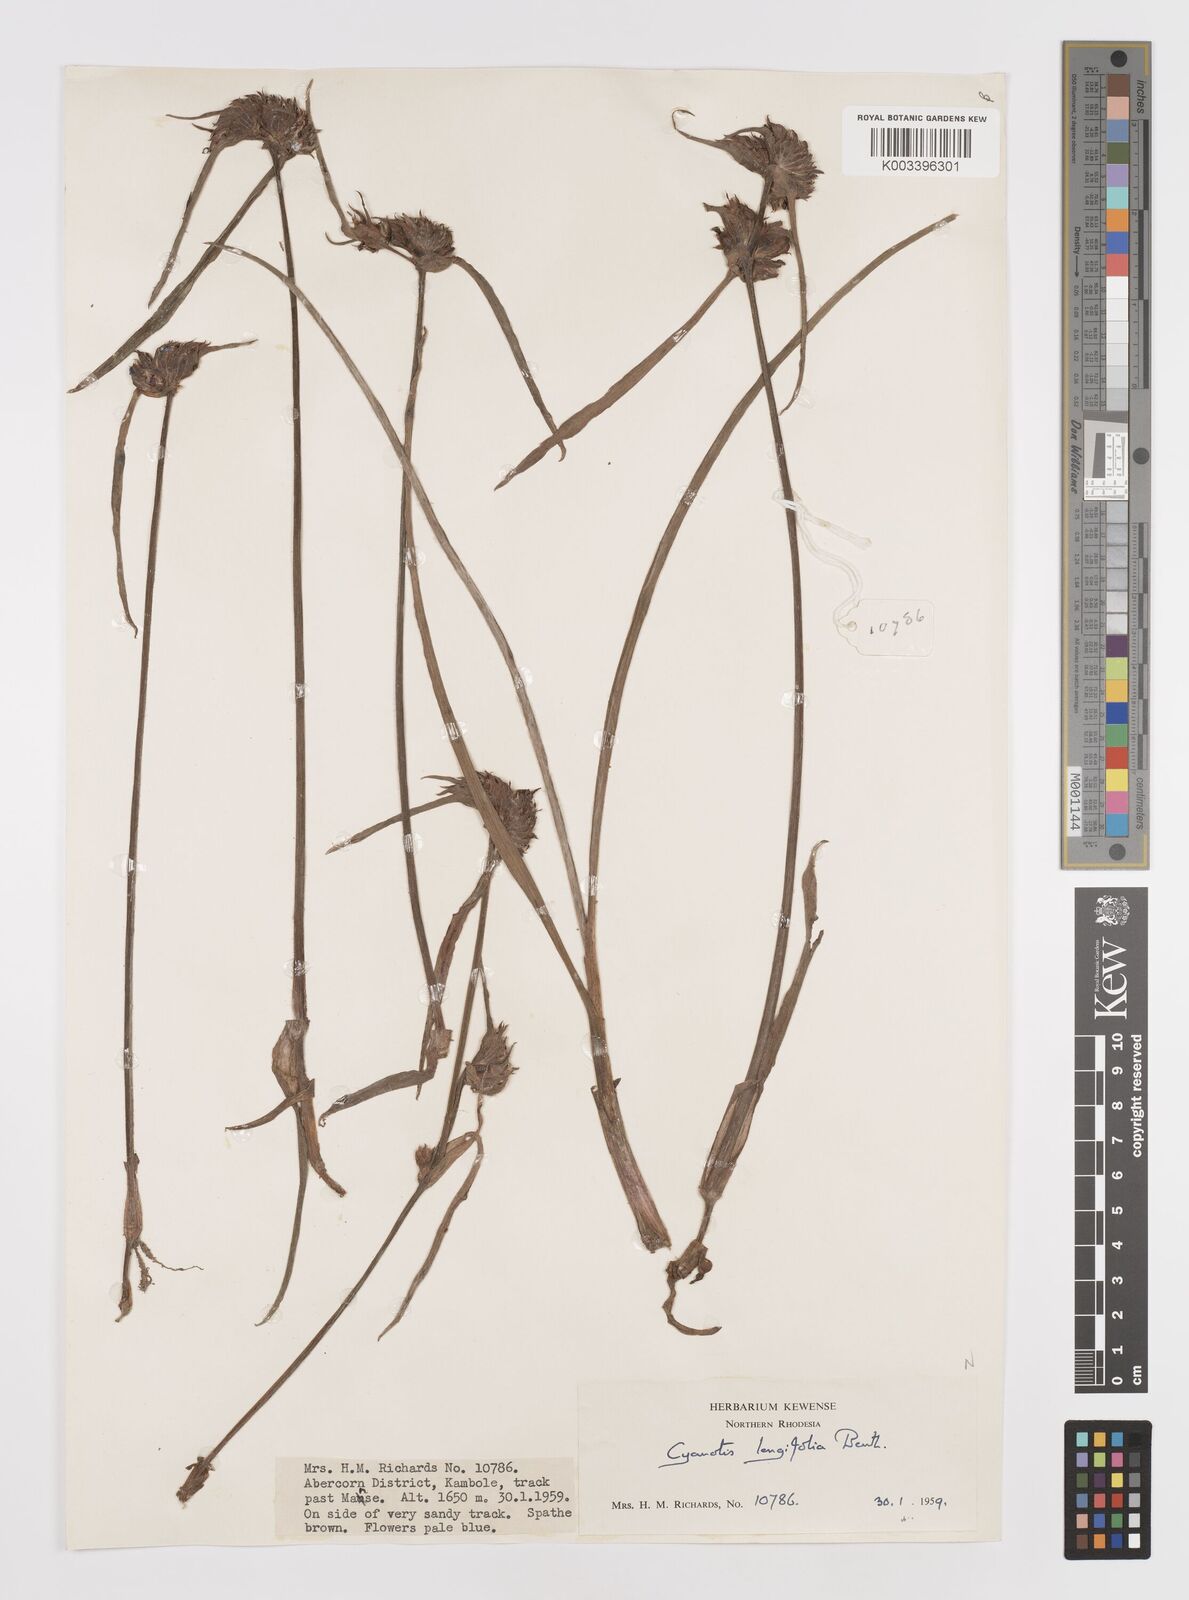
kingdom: Plantae
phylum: Tracheophyta
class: Liliopsida
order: Commelinales
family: Commelinaceae
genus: Cyanotis
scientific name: Cyanotis longifolia
